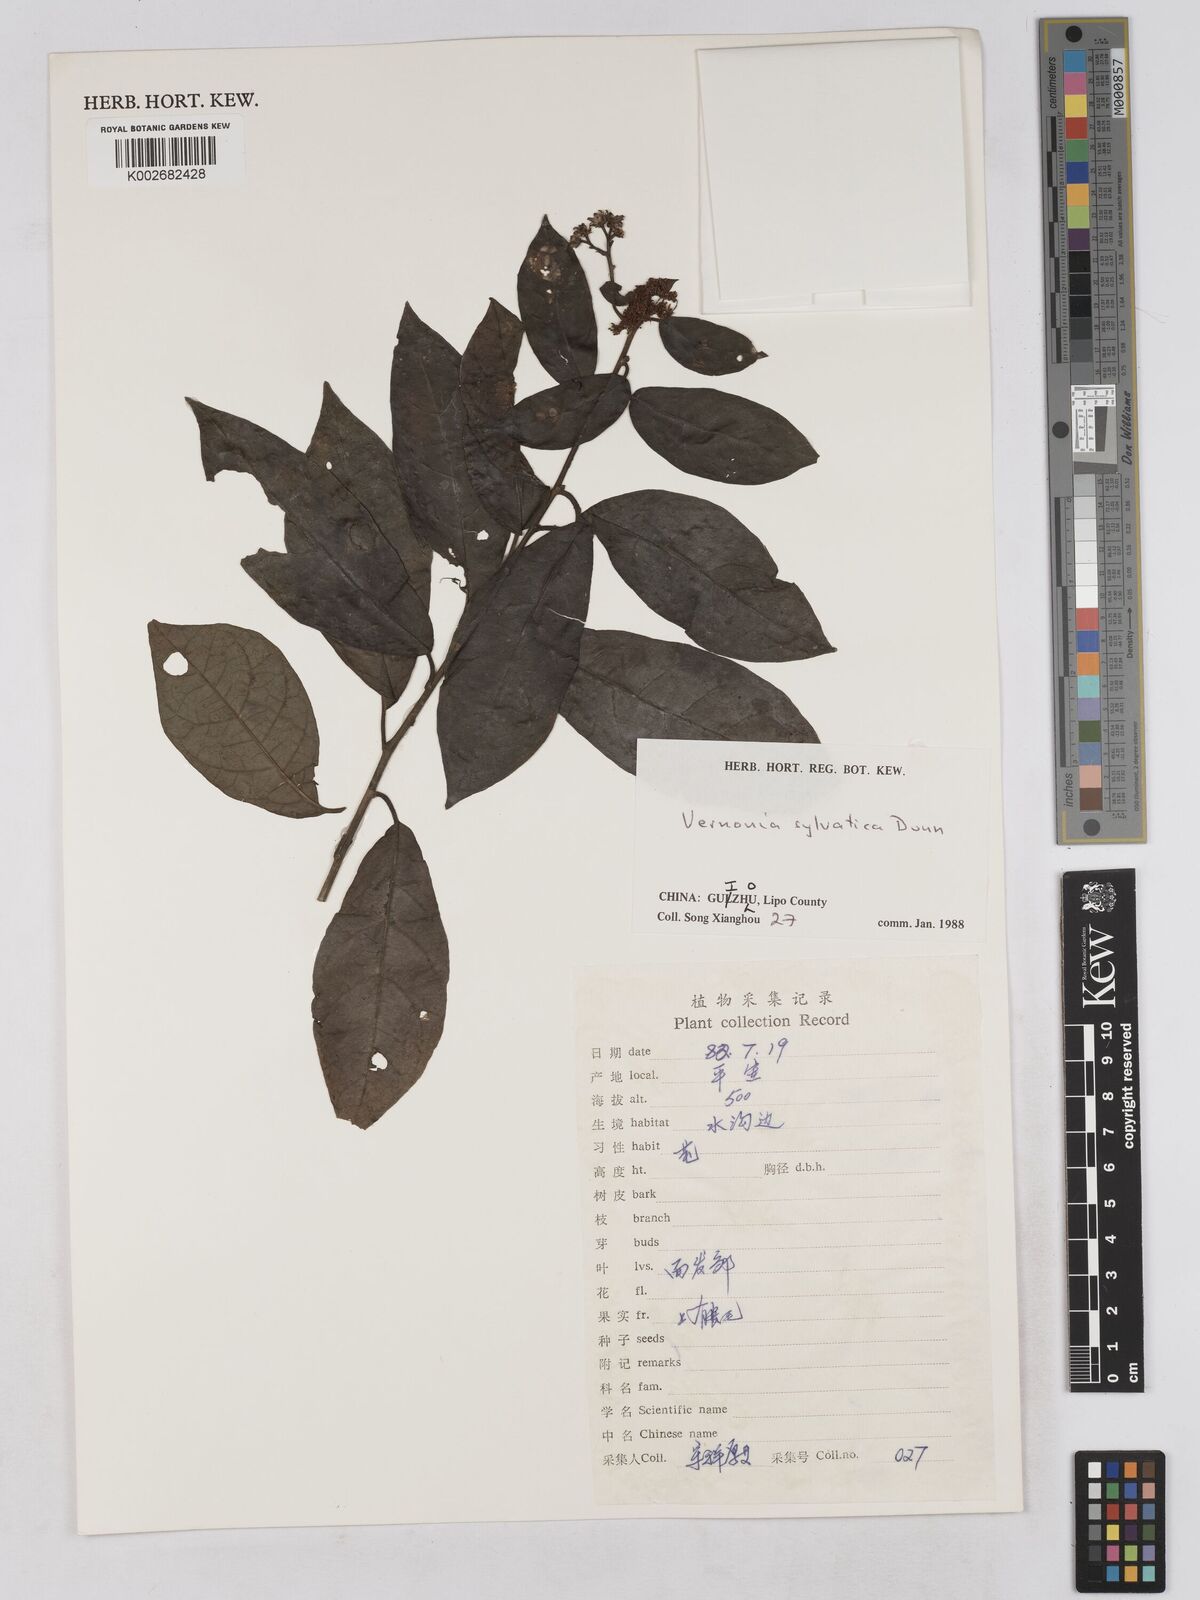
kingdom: Plantae
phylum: Tracheophyta
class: Magnoliopsida
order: Asterales
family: Asteraceae
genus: Strobocalyx
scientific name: Strobocalyx sylvatica
